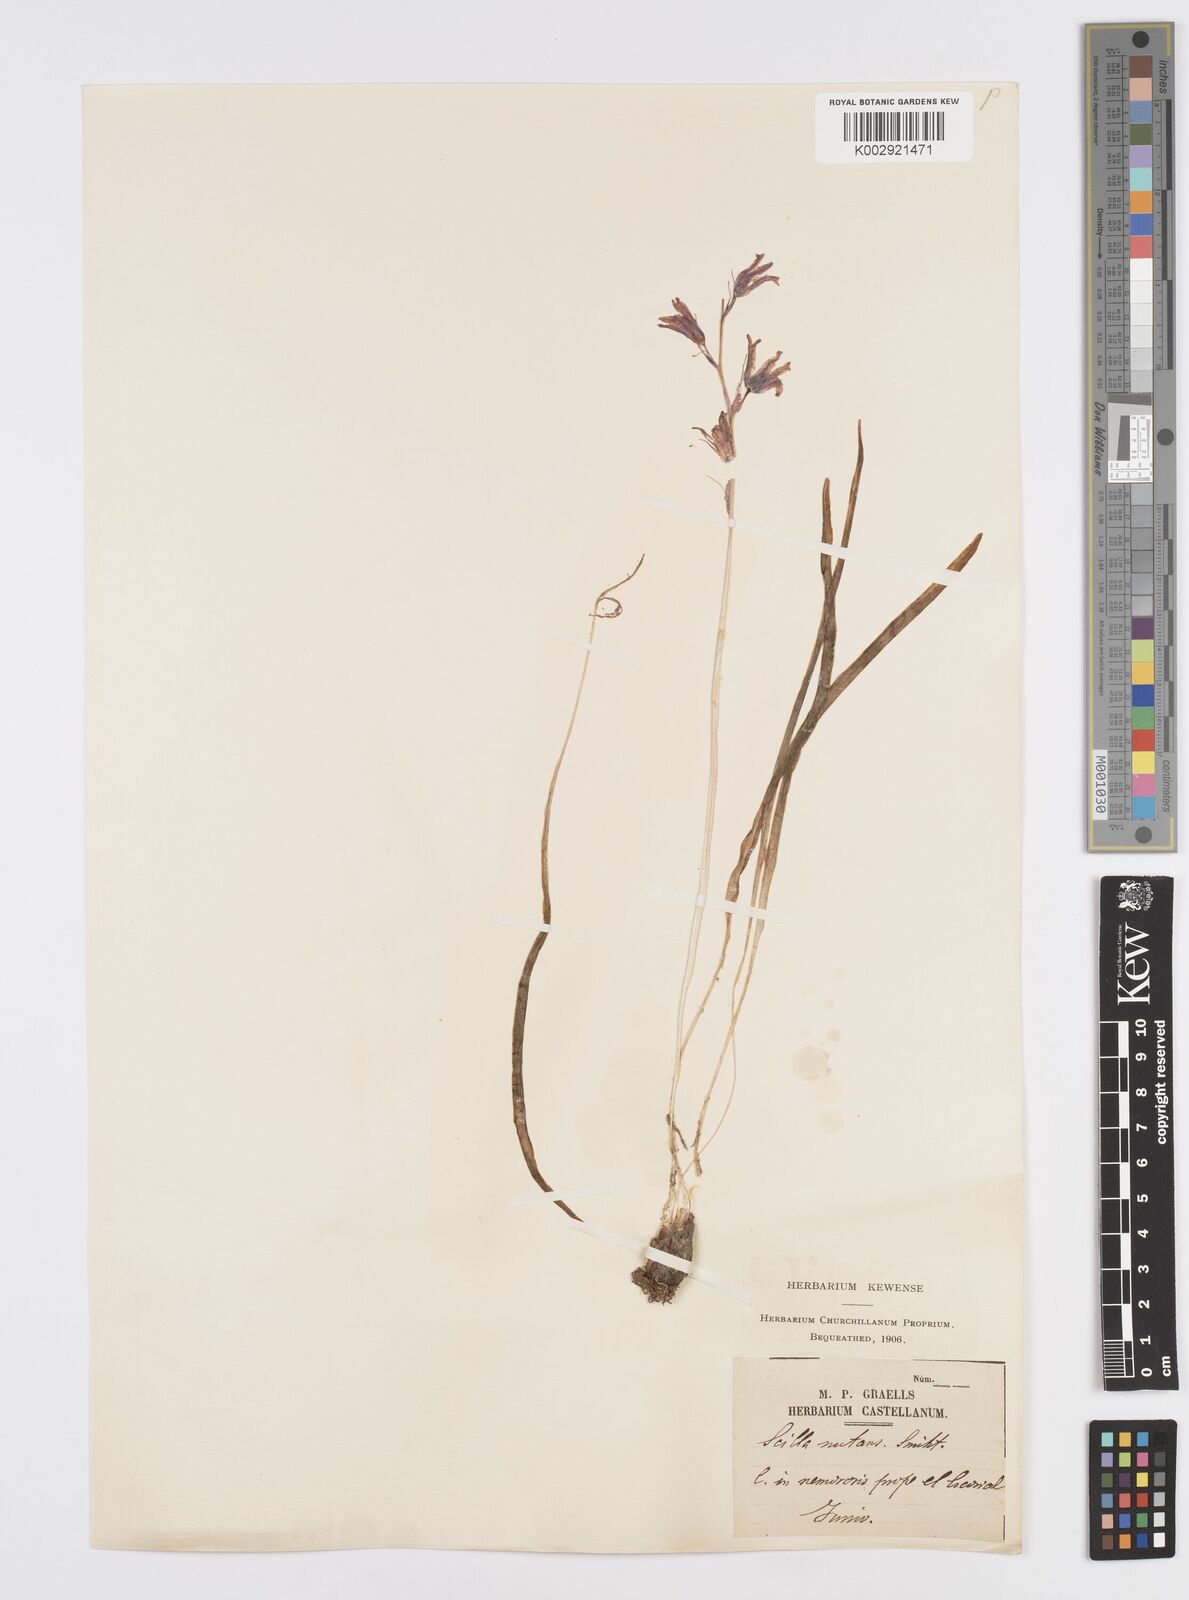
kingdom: Plantae
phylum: Tracheophyta
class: Liliopsida
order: Asparagales
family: Asparagaceae
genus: Hyacinthoides
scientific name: Hyacinthoides hispanica
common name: Spanish bluebell
